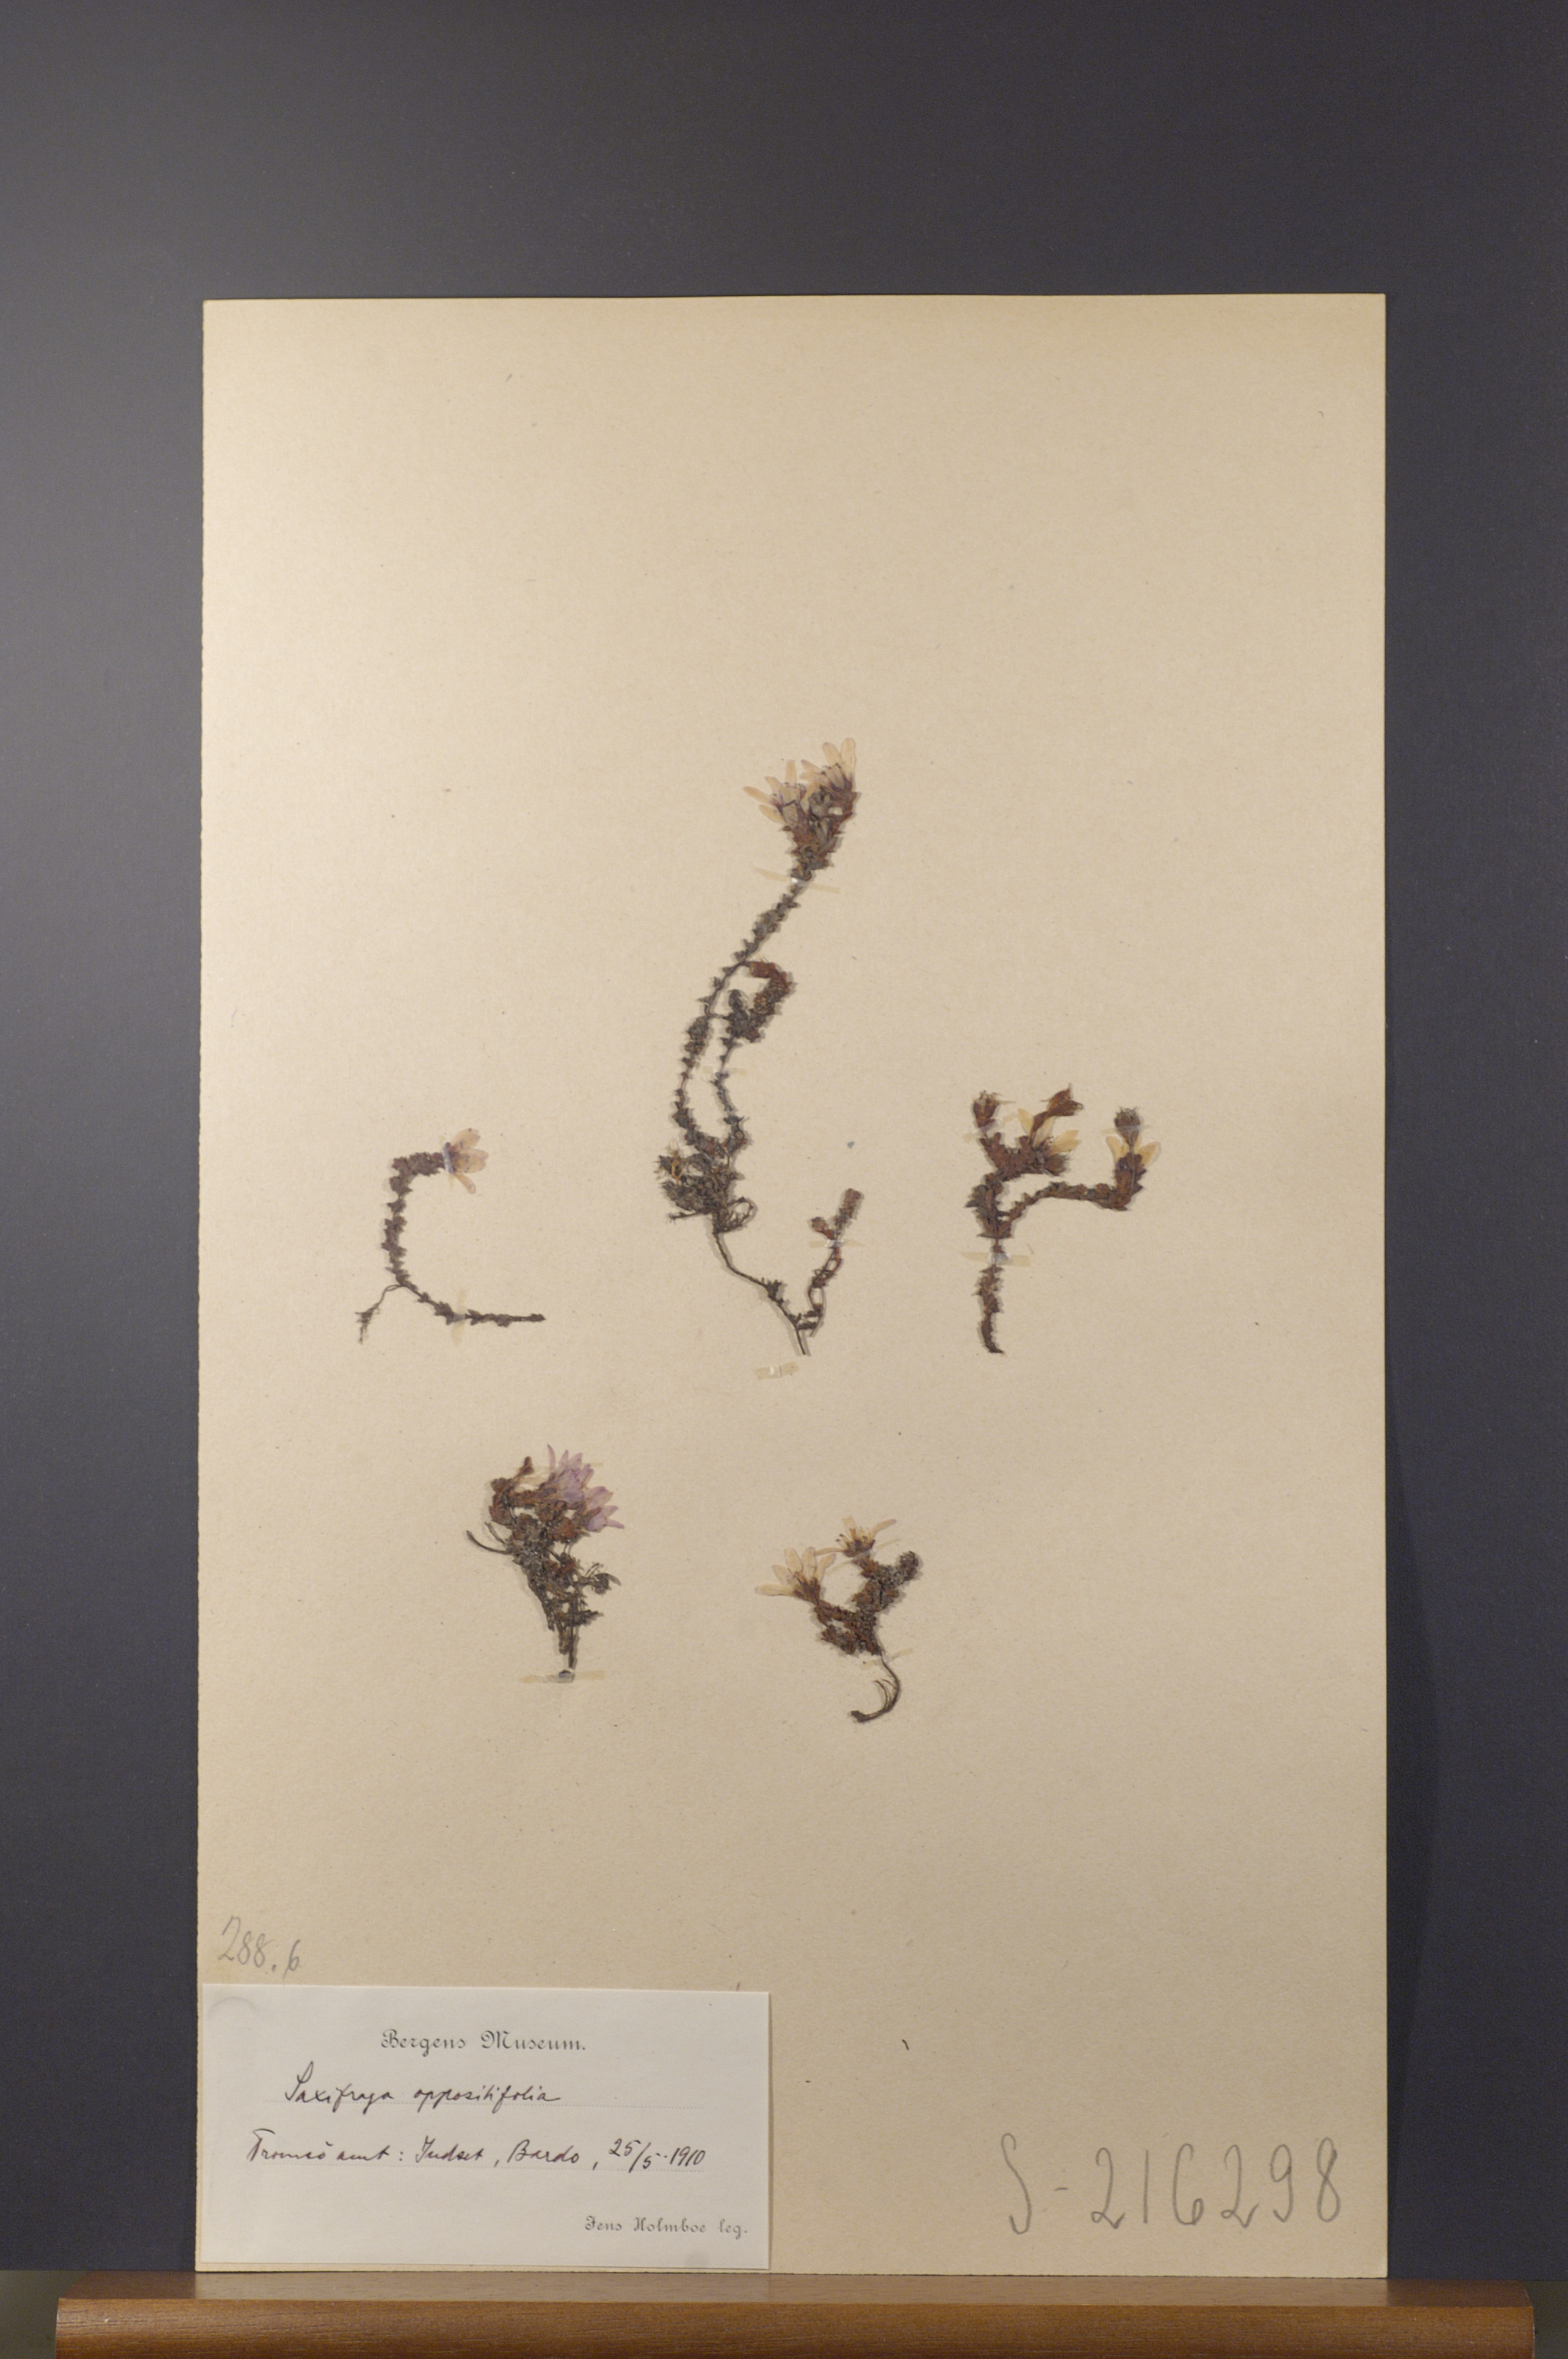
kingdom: Plantae
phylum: Tracheophyta
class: Magnoliopsida
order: Saxifragales
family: Saxifragaceae
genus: Saxifraga
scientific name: Saxifraga oppositifolia
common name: Purple saxifrage
